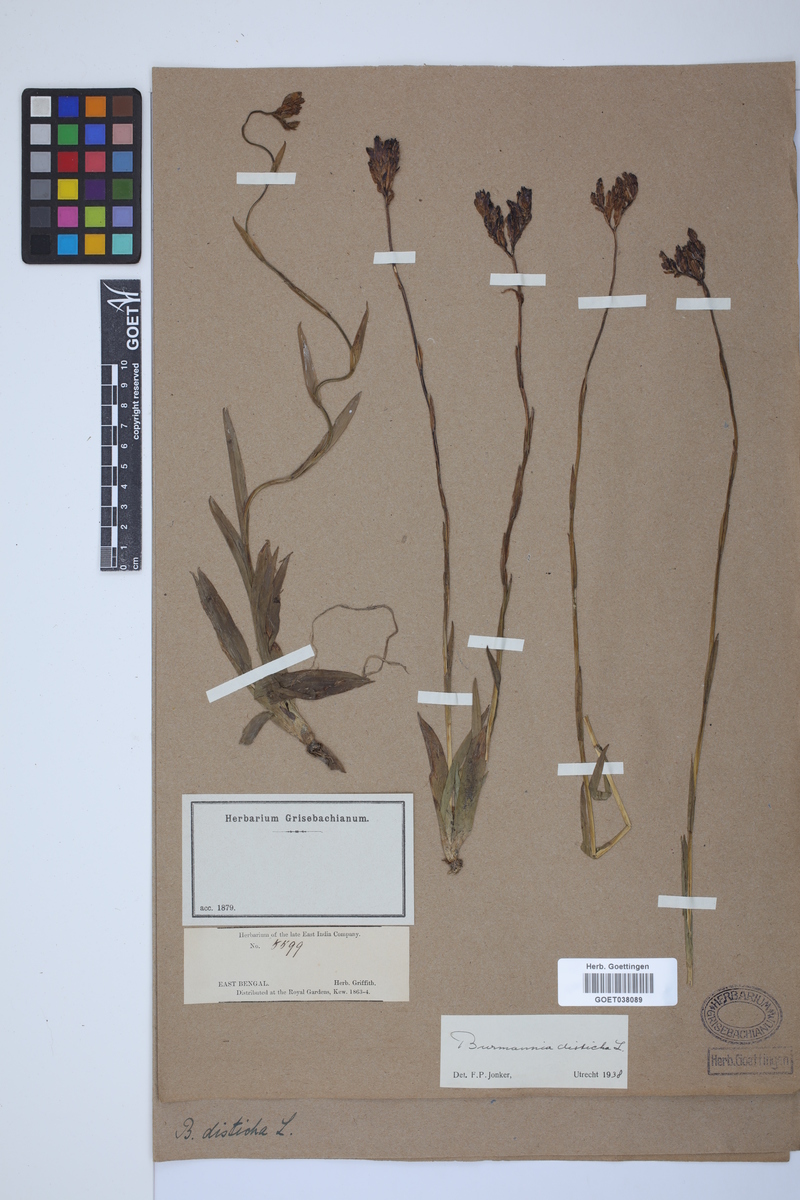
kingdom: Plantae
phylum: Tracheophyta
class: Liliopsida
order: Dioscoreales
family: Burmanniaceae
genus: Burmannia
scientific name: Burmannia disticha
